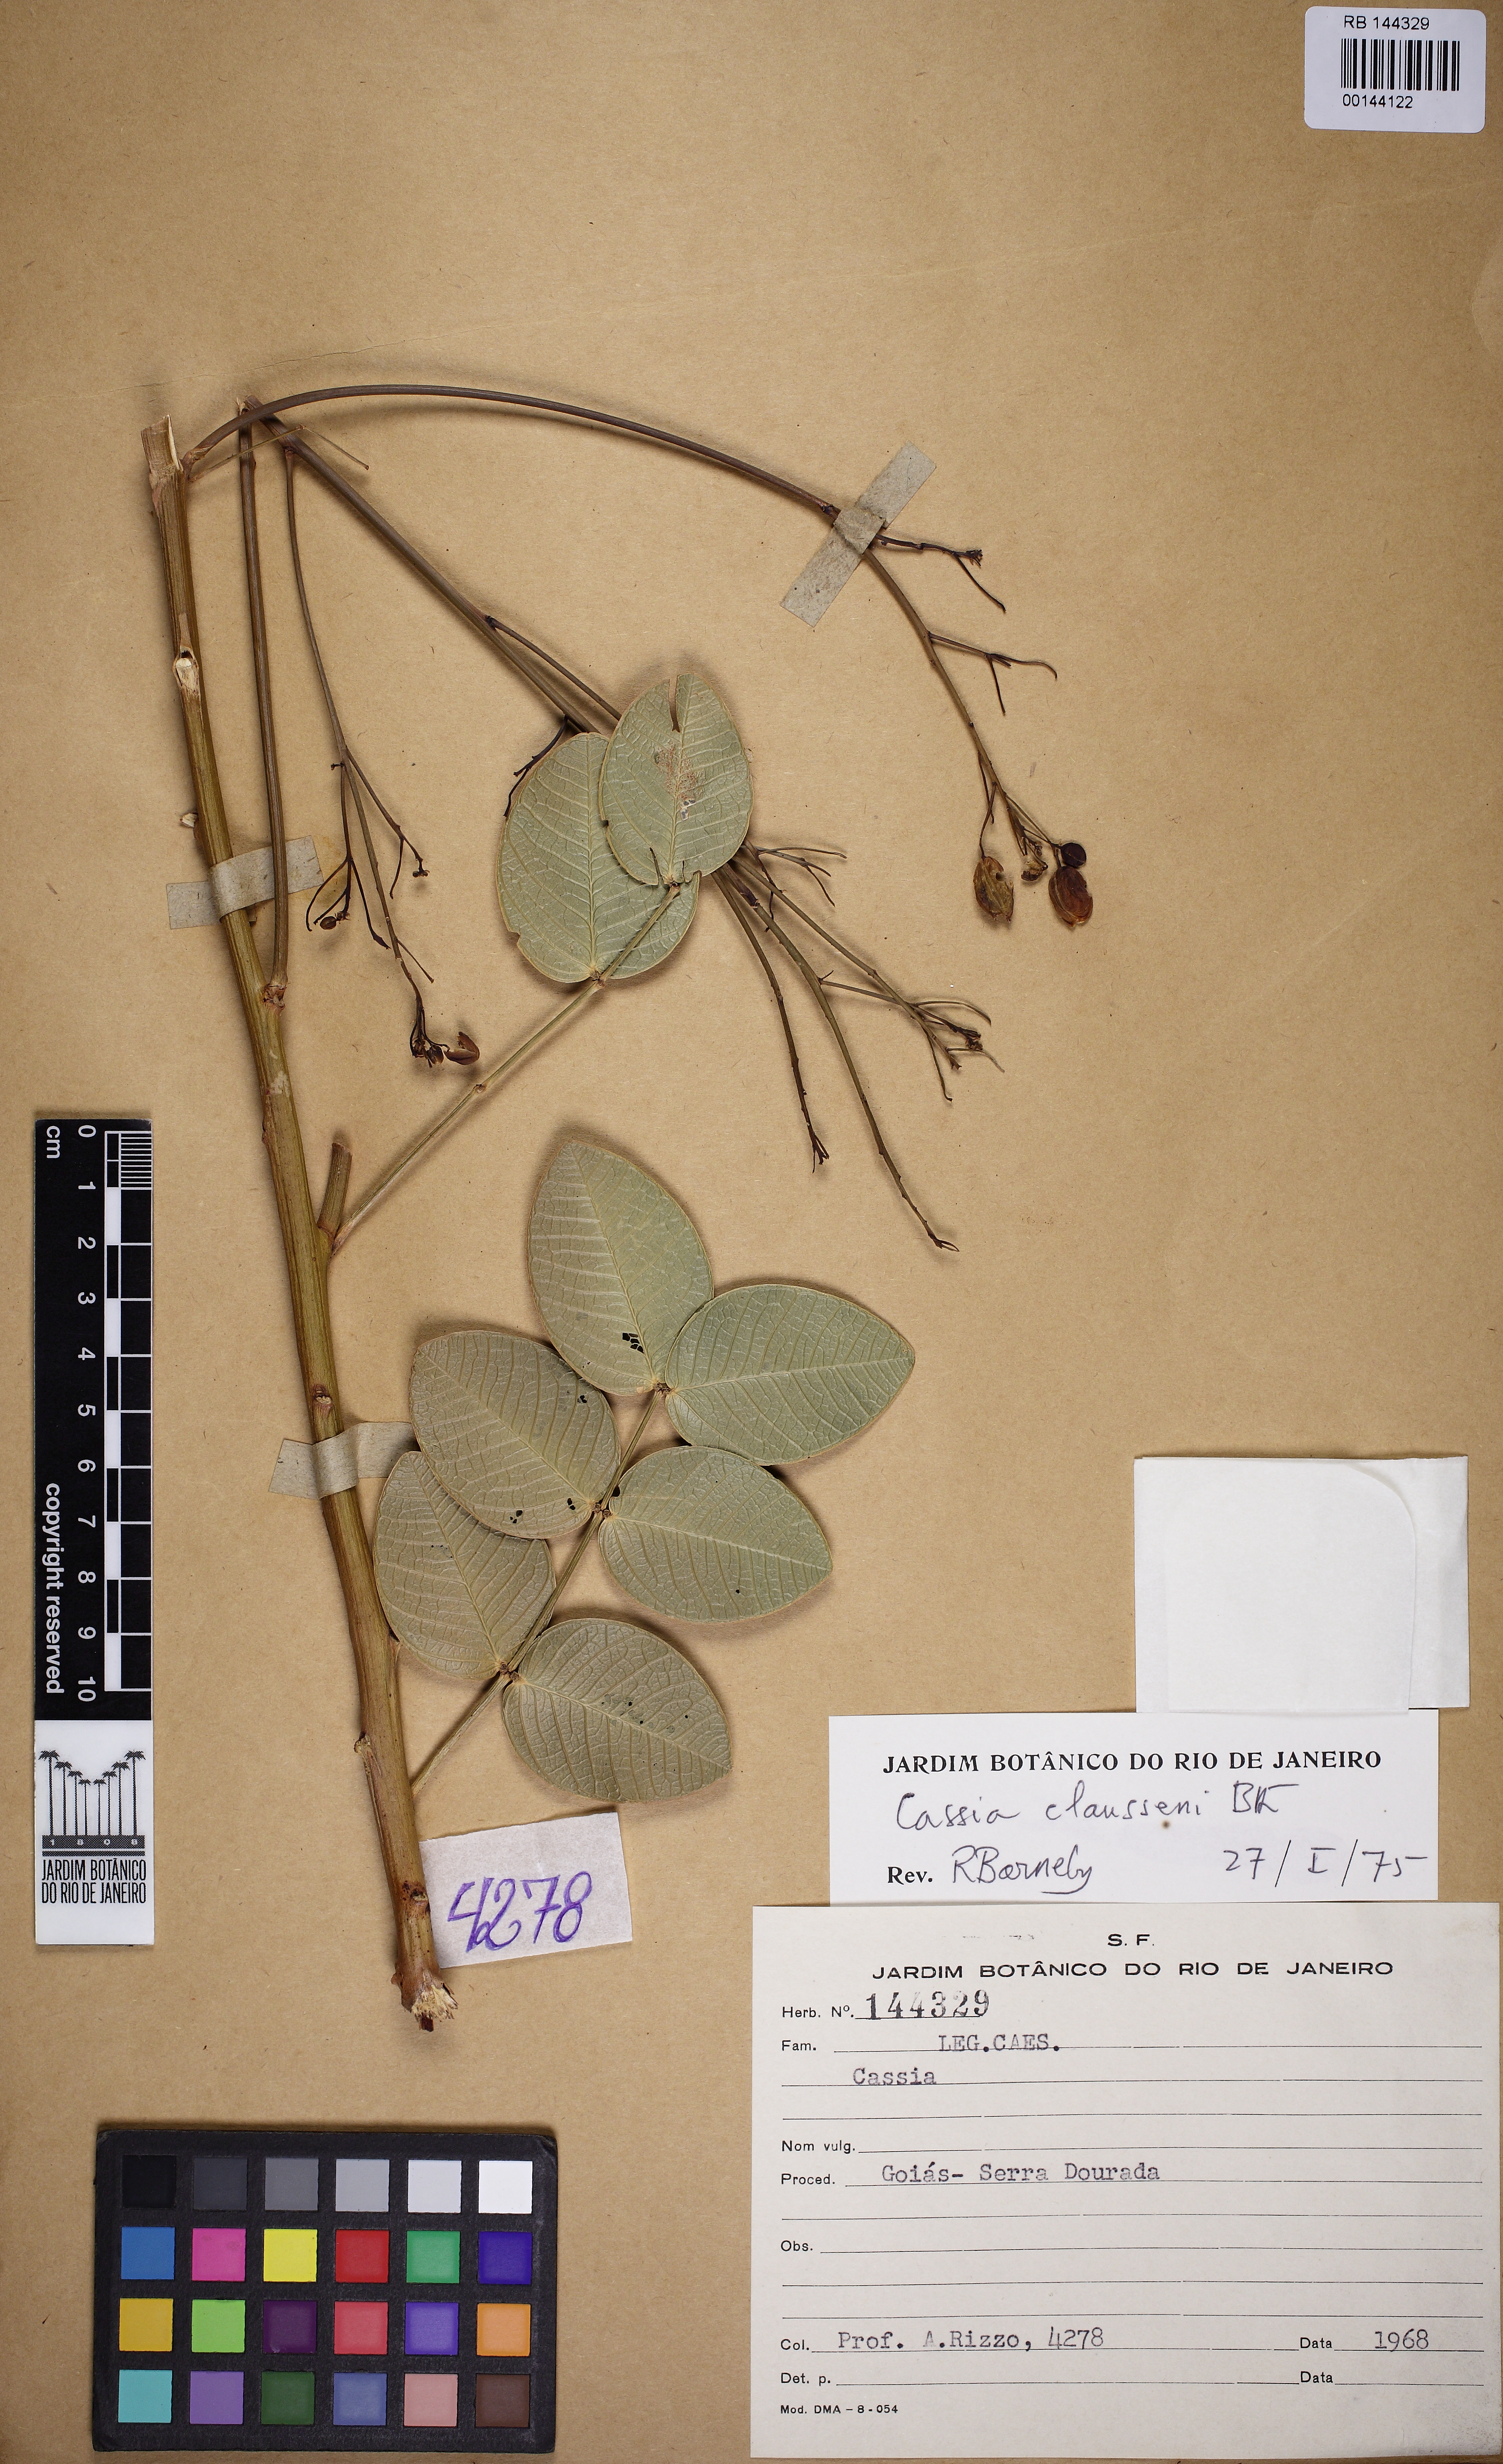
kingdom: Plantae
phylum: Tracheophyta
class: Magnoliopsida
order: Fabales
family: Fabaceae
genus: Chamaecrista
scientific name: Chamaecrista claussenii
